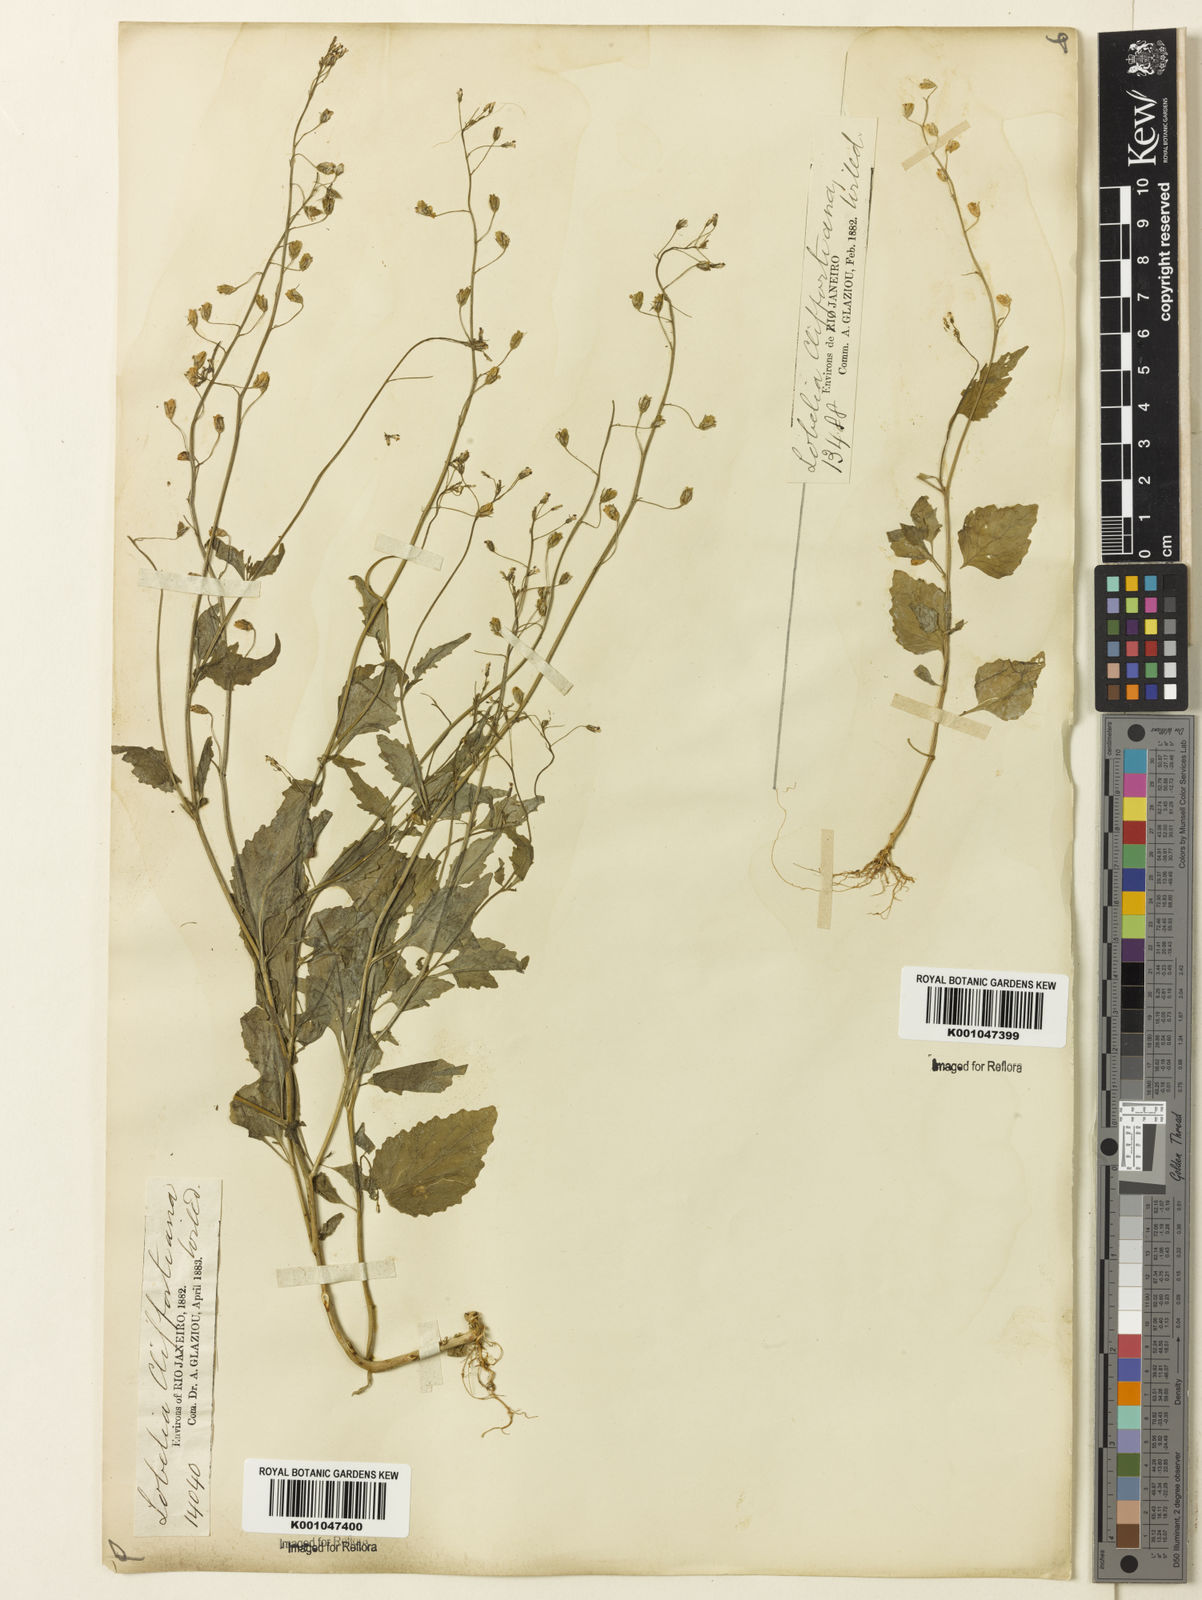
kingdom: Plantae
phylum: Tracheophyta
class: Magnoliopsida
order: Asterales
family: Campanulaceae
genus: Lobelia
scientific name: Lobelia xalapensis
